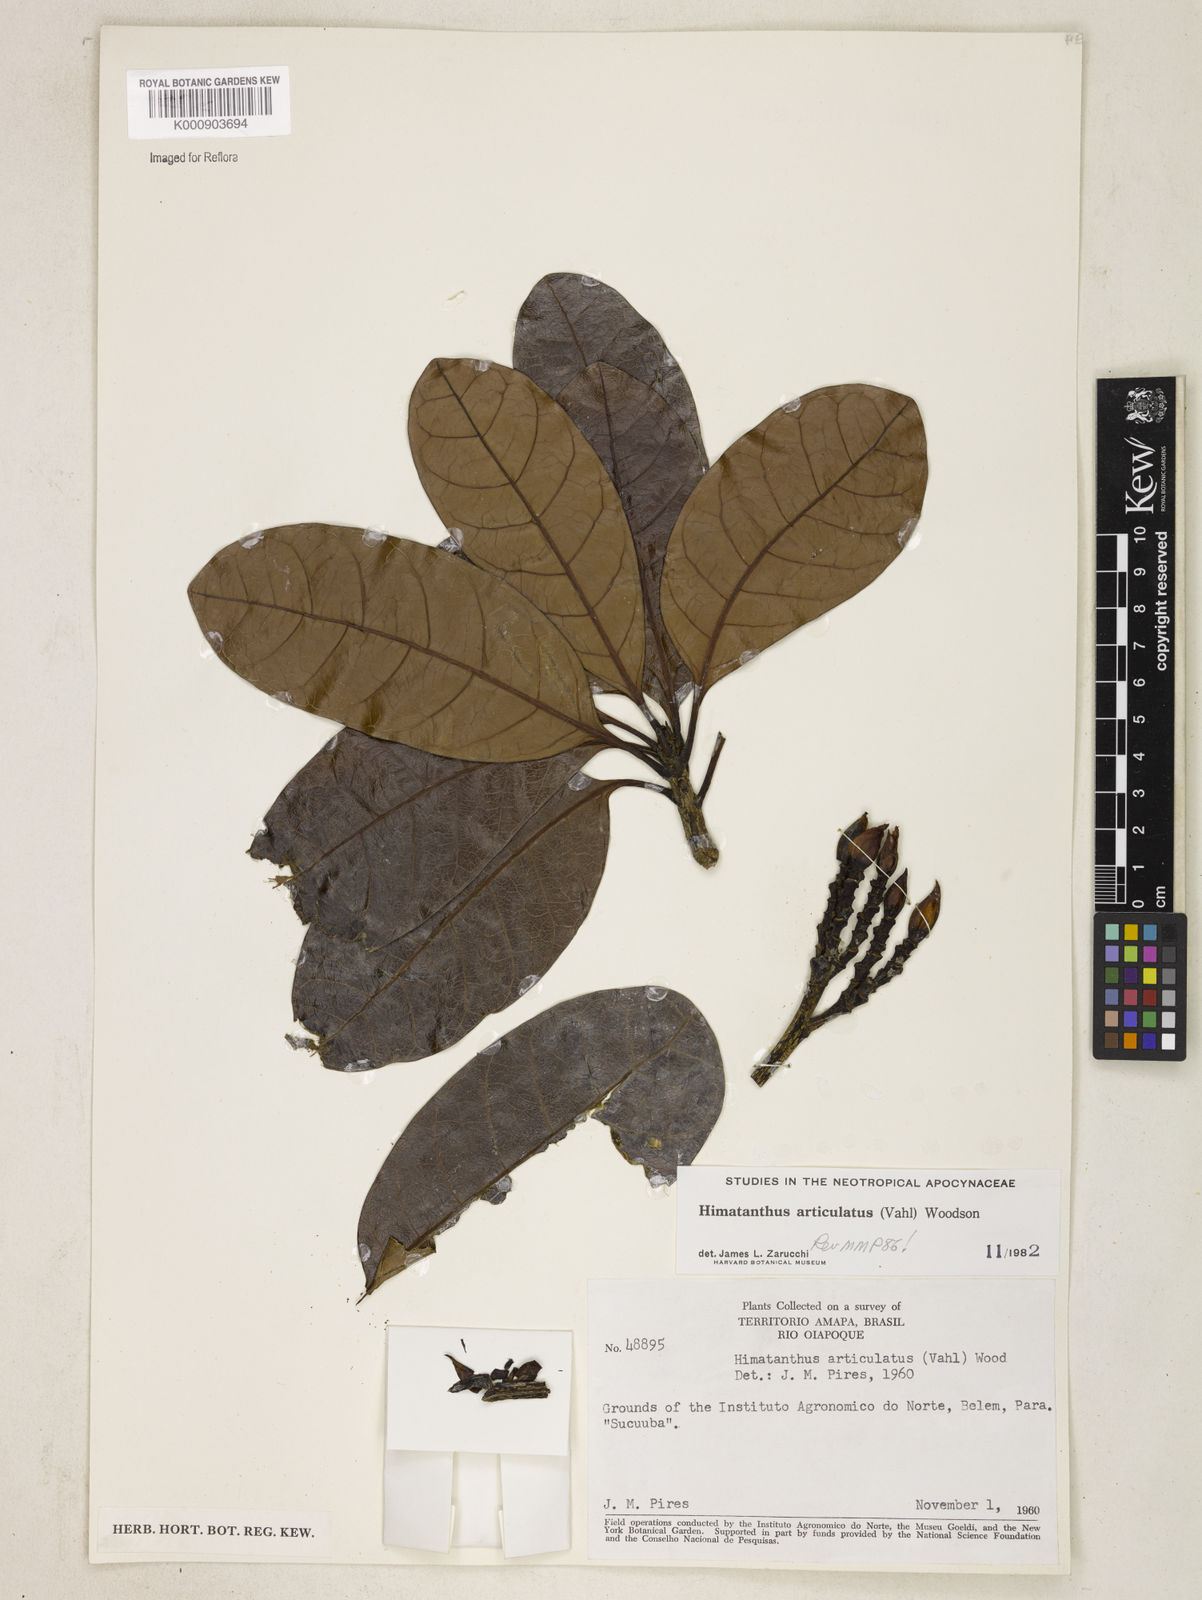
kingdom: Plantae
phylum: Tracheophyta
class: Magnoliopsida
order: Gentianales
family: Apocynaceae
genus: Himatanthus
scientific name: Himatanthus articulatus
